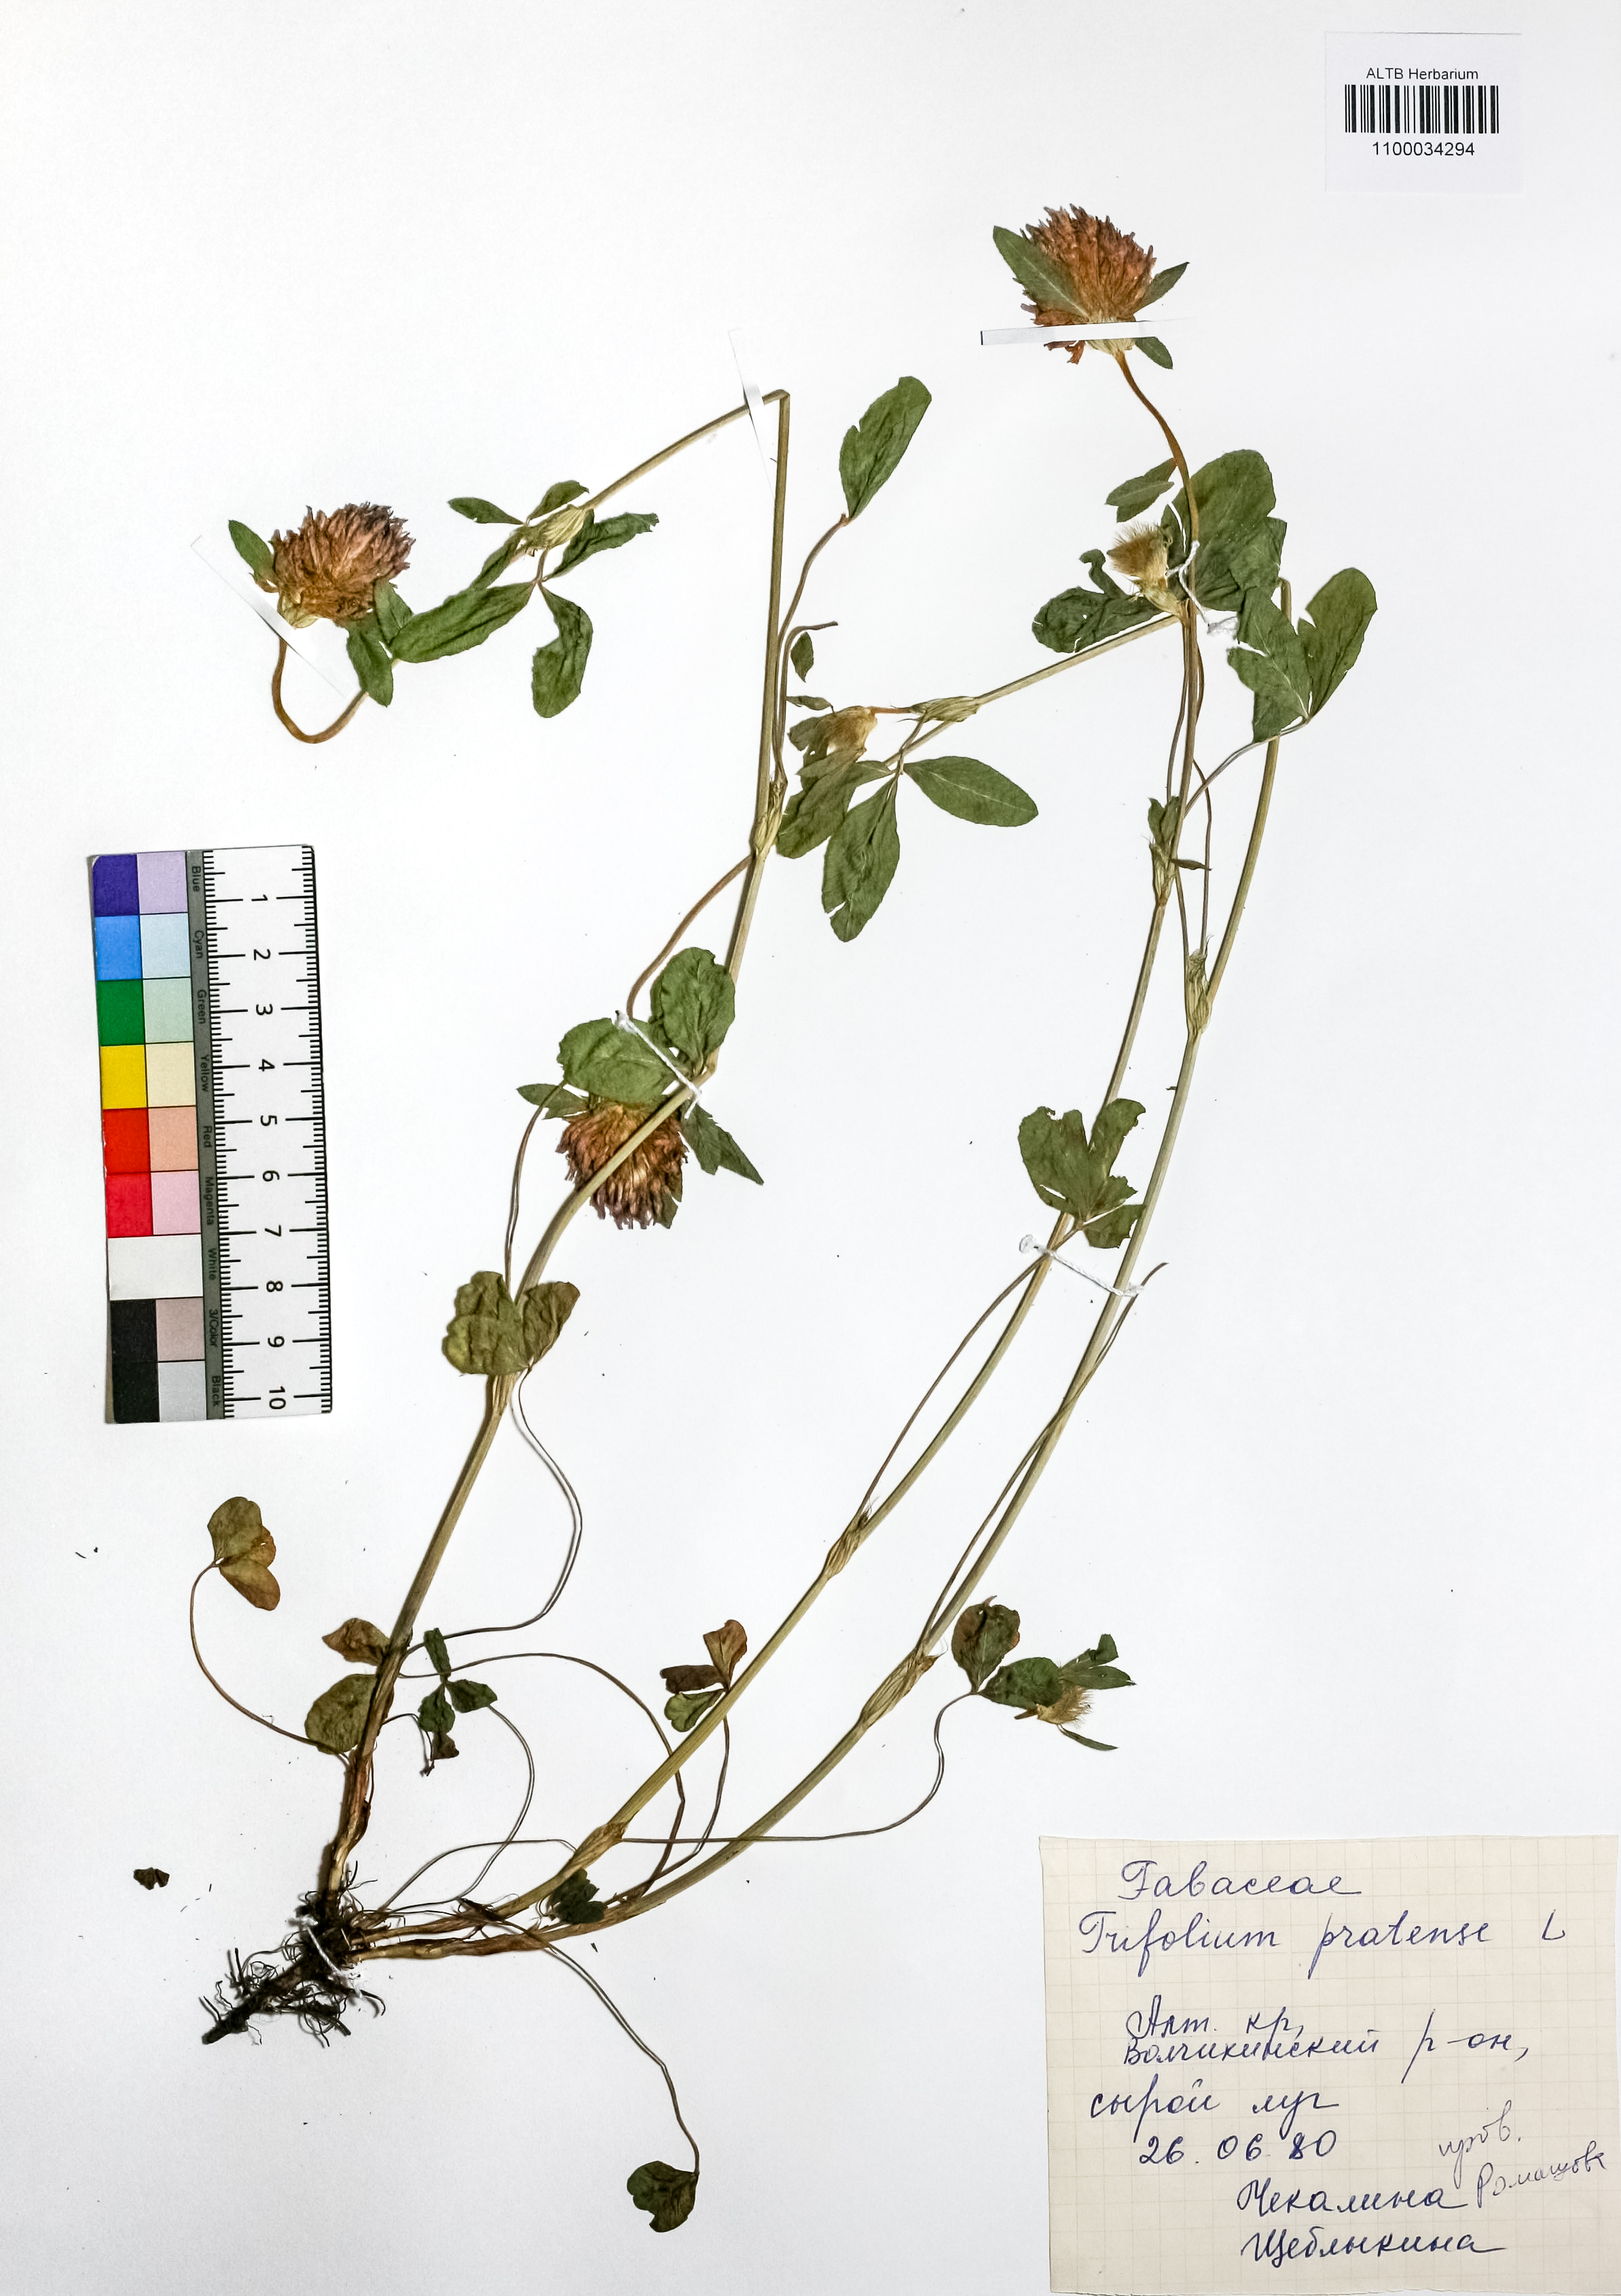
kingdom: Plantae
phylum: Tracheophyta
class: Magnoliopsida
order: Fabales
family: Fabaceae
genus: Trifolium
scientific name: Trifolium pratense
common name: Red clover
